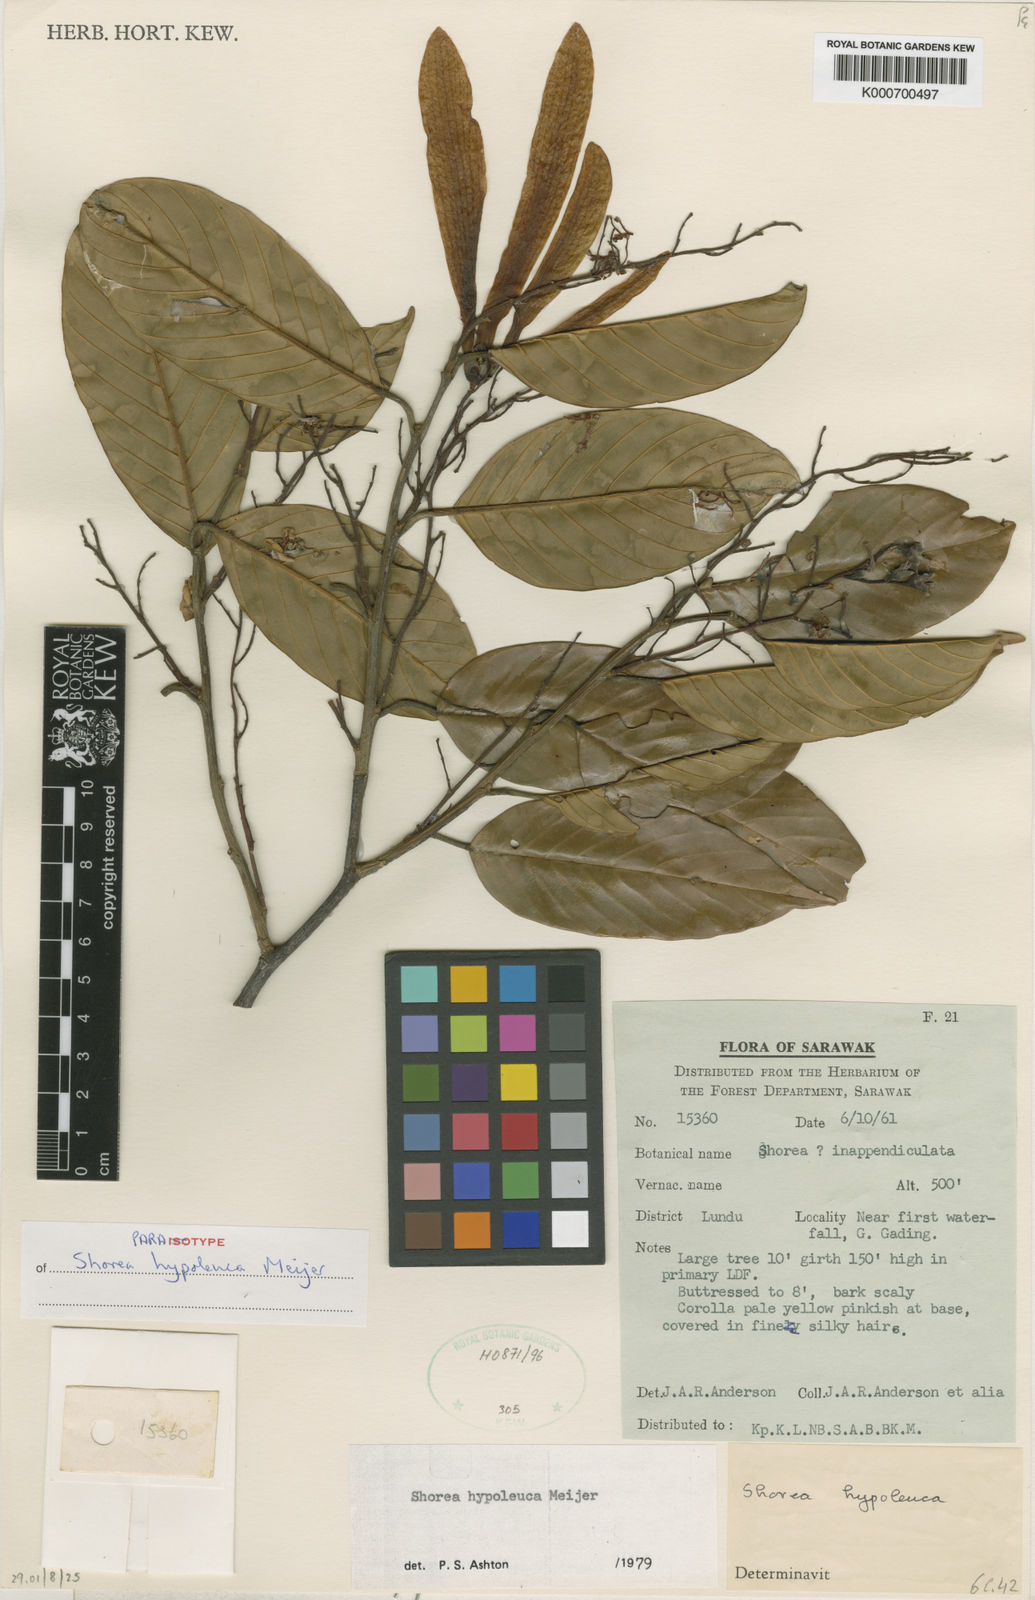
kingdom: Plantae
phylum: Tracheophyta
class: Magnoliopsida
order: Malvales
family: Dipterocarpaceae
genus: Shorea
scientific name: Shorea hypoleuca
